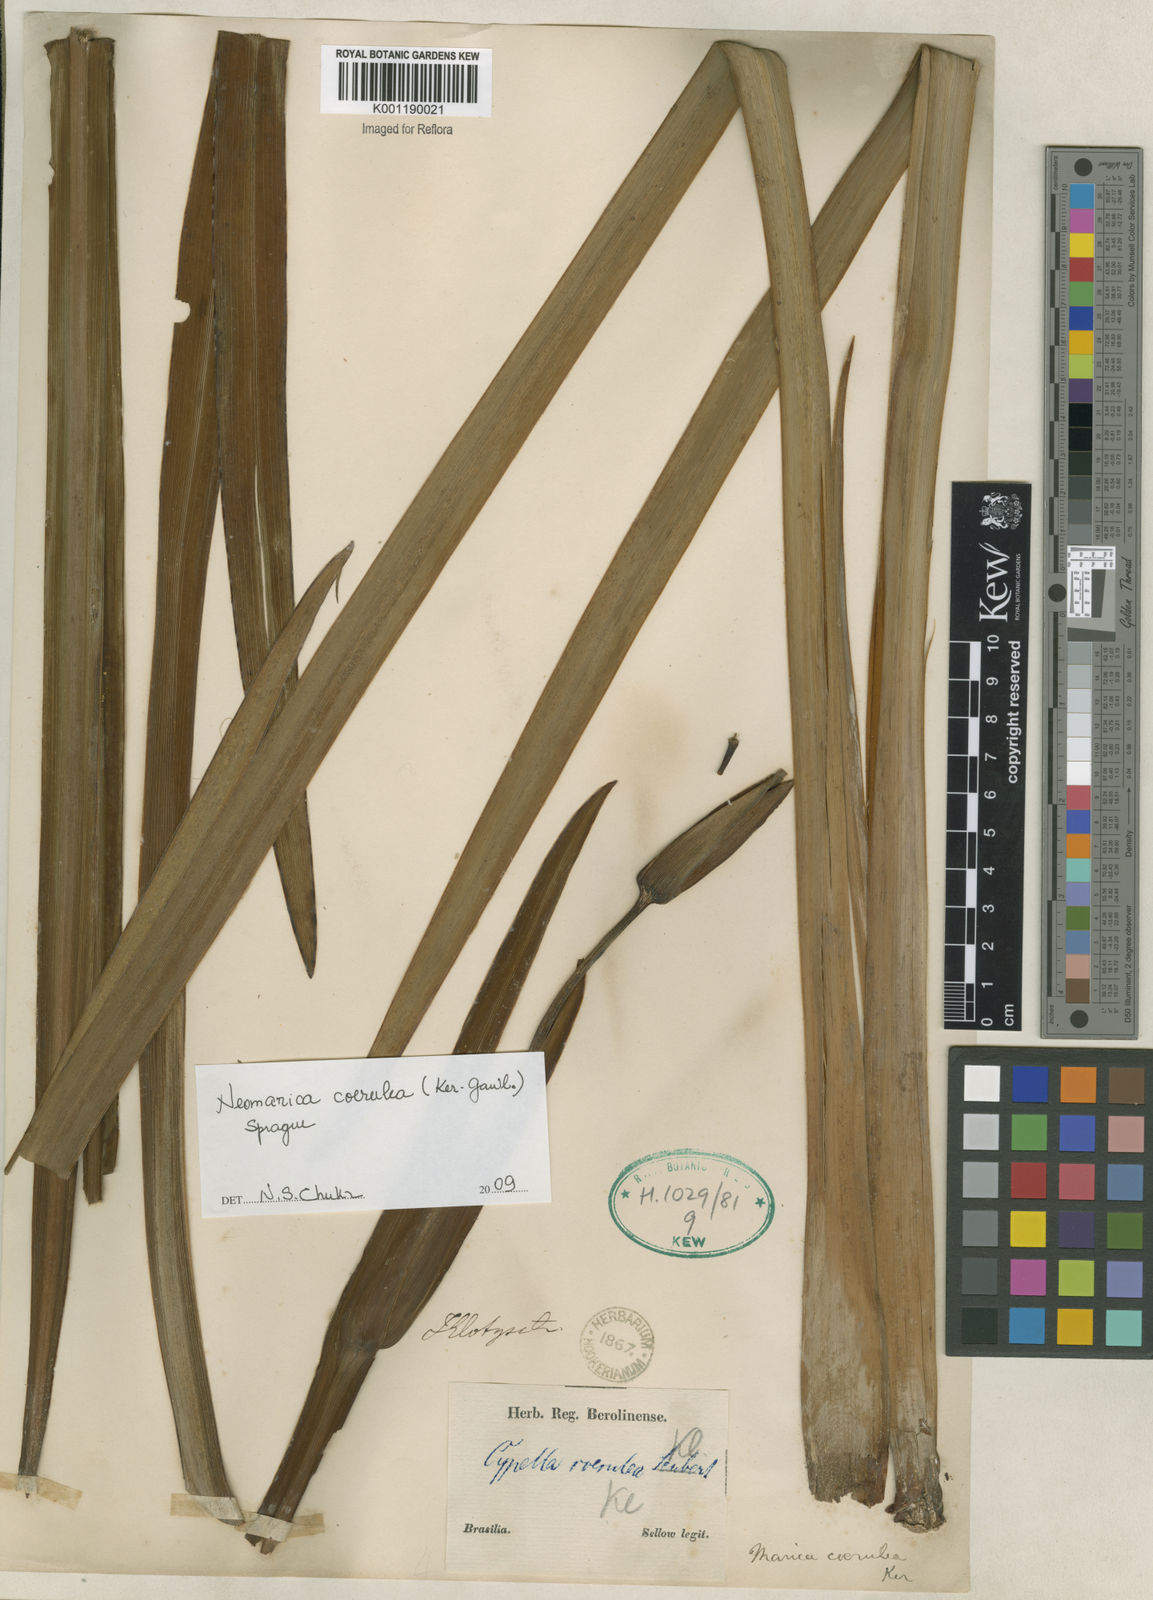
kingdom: Plantae
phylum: Tracheophyta
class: Liliopsida
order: Asparagales
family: Iridaceae
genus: Trimezia
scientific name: Trimezia
